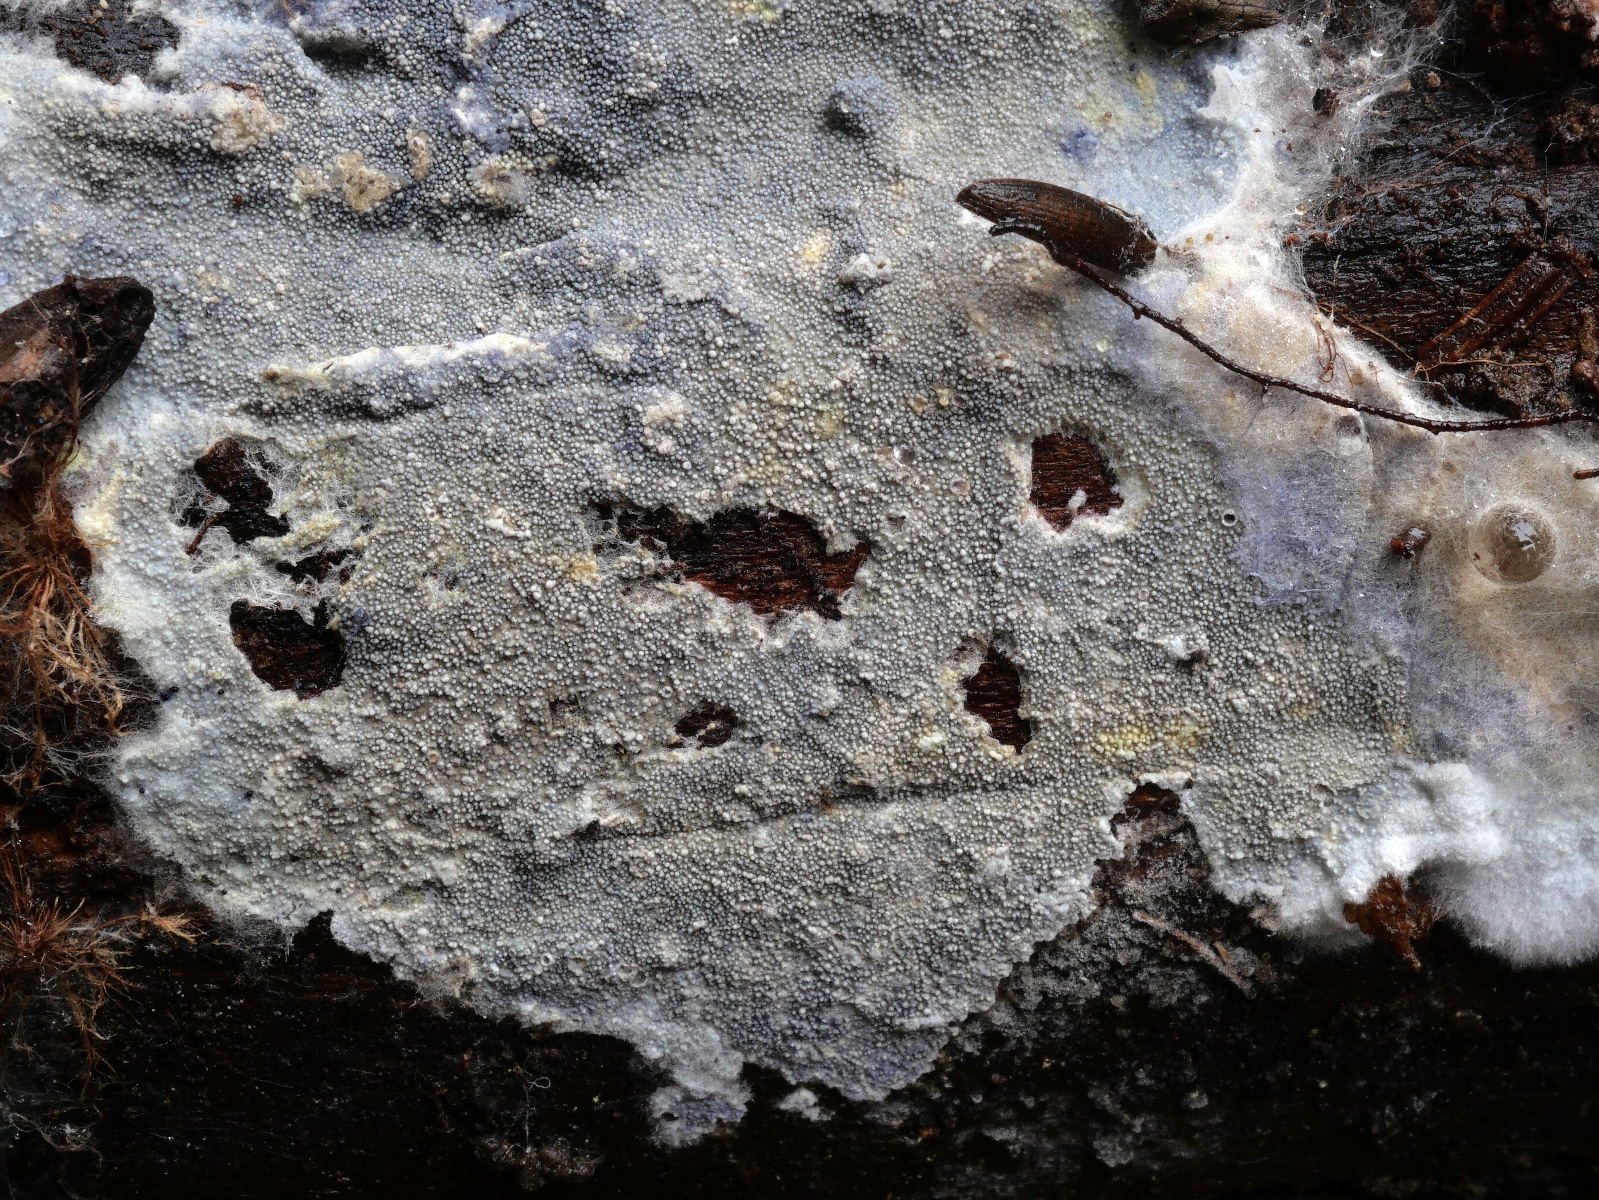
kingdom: Fungi
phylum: Basidiomycota
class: Agaricomycetes
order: Thelephorales
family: Thelephoraceae
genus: Amaurodon
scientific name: Amaurodon mustialaensis
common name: blåsporet frynsehinde
